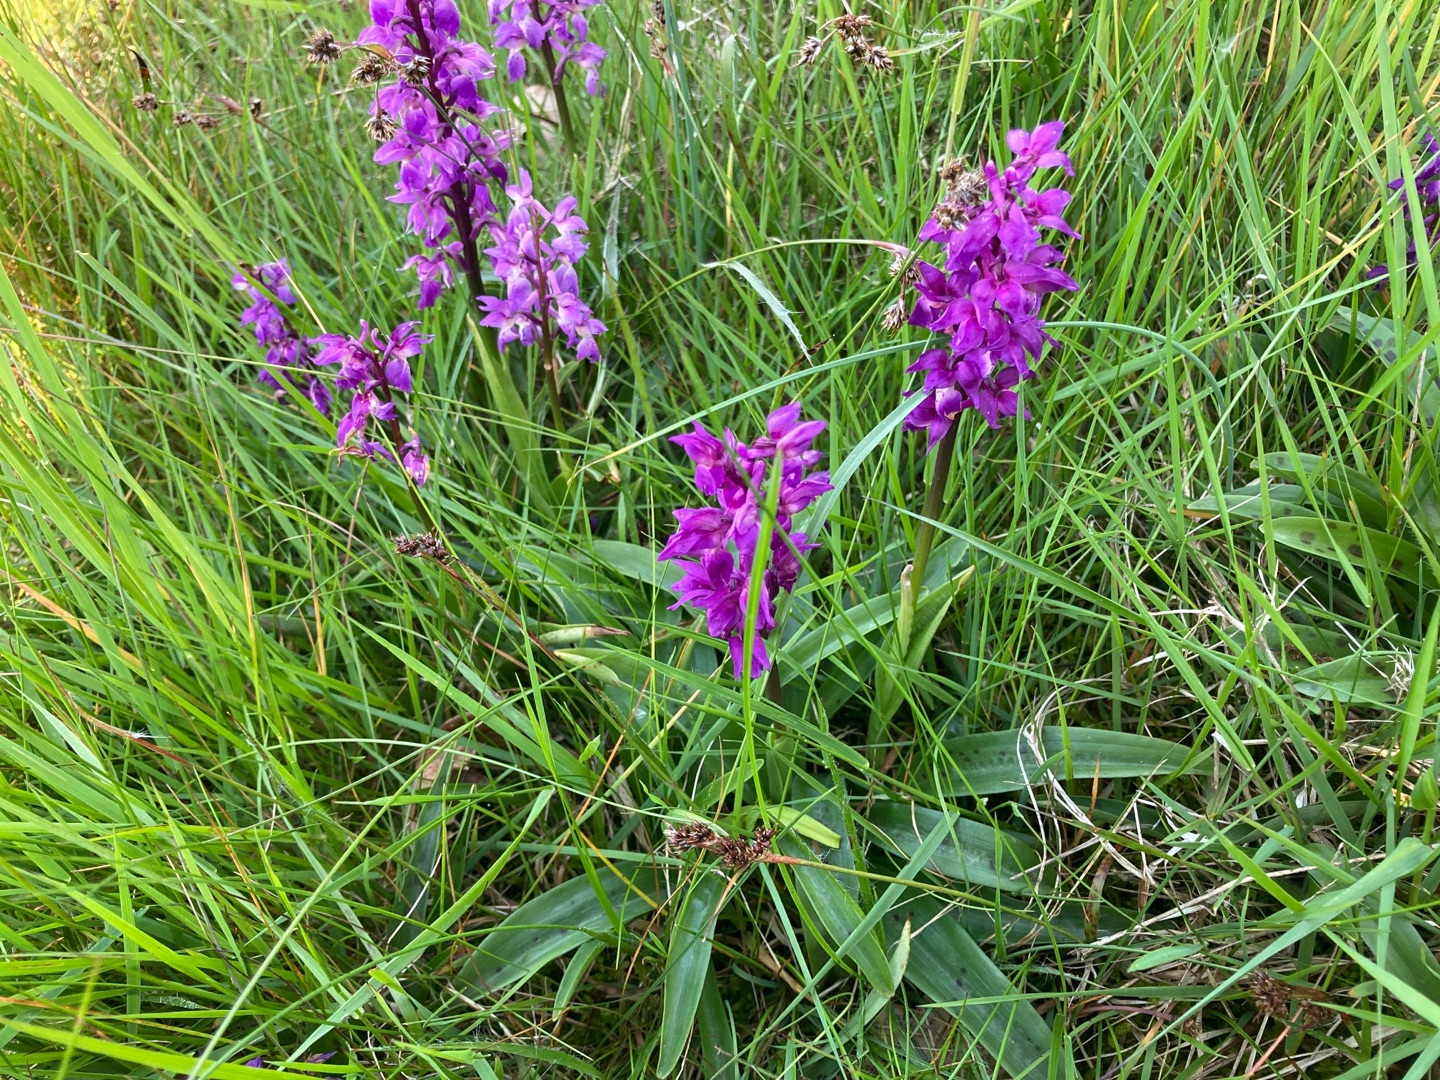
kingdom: Plantae
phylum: Tracheophyta
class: Liliopsida
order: Asparagales
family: Orchidaceae
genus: Orchis
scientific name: Orchis mascula
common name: Tyndakset gøgeurt
